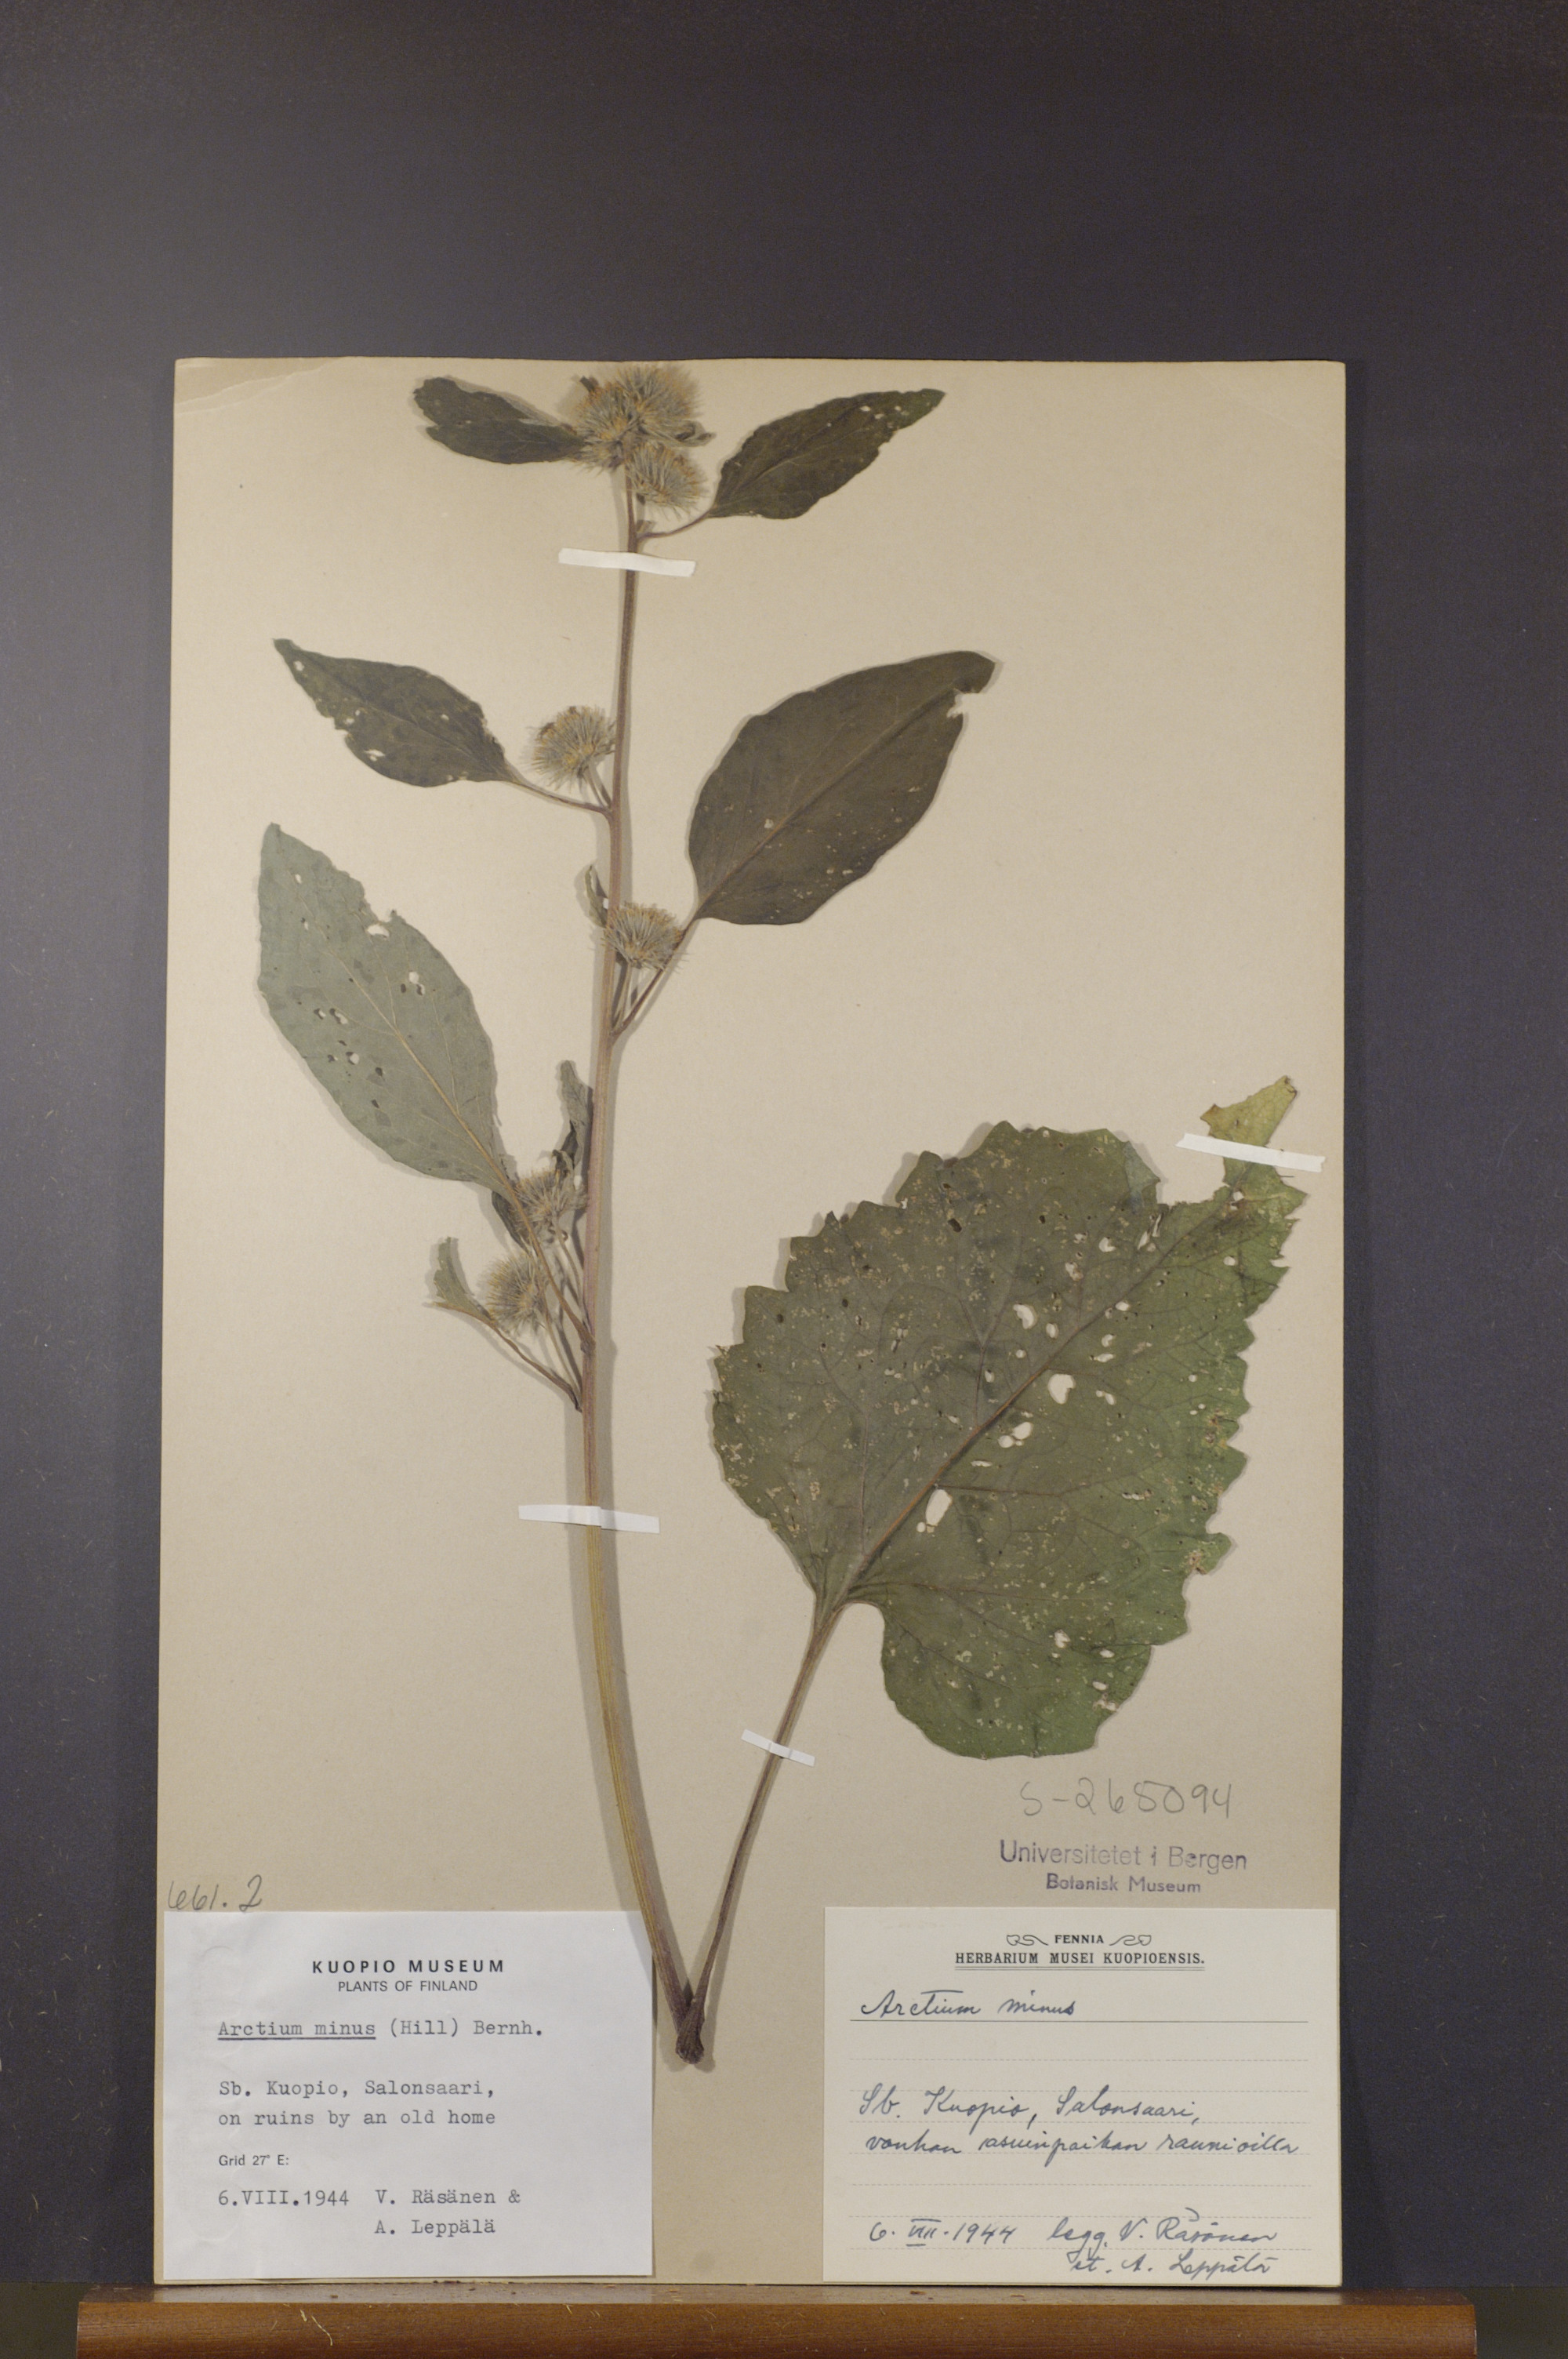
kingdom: Plantae
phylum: Tracheophyta
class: Magnoliopsida
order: Asterales
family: Asteraceae
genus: Arctium
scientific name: Arctium minus
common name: Lesser burdock
